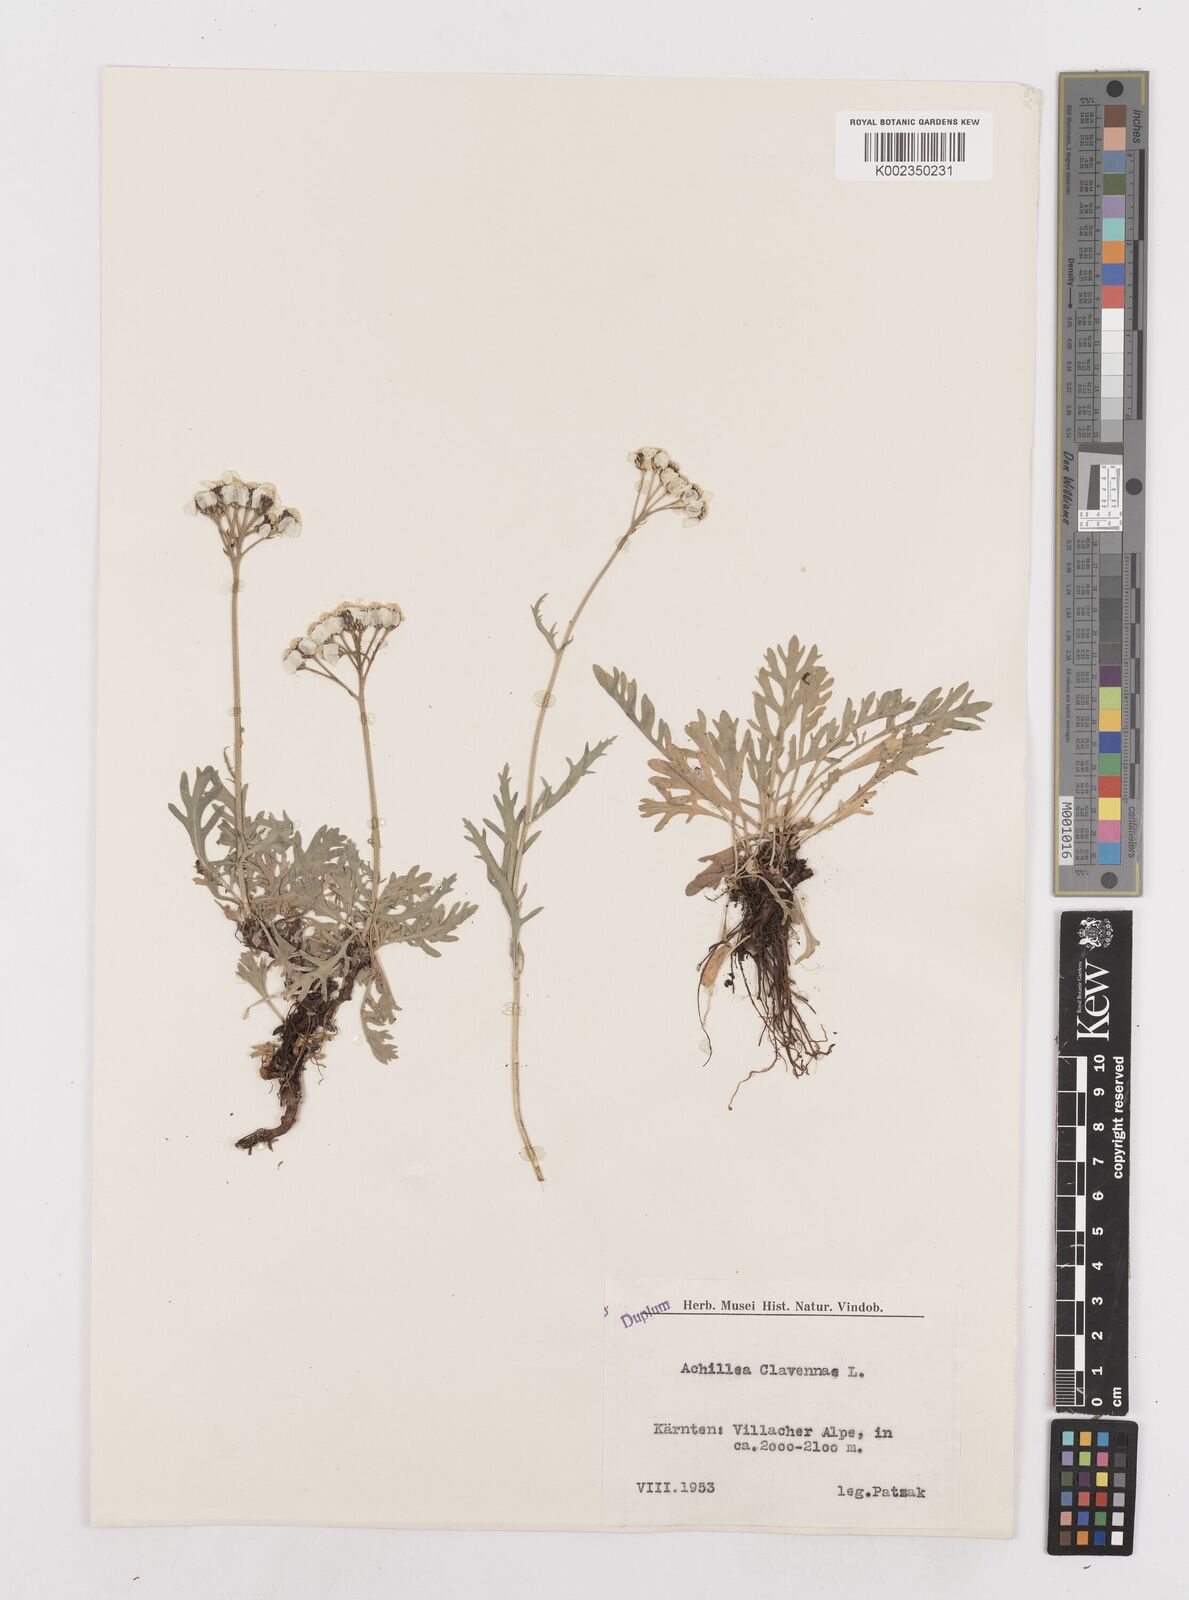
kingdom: Plantae
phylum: Tracheophyta
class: Magnoliopsida
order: Asterales
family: Asteraceae
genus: Achillea
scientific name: Achillea clavennae
